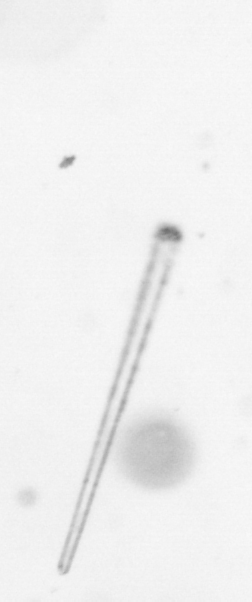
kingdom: Chromista
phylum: Ochrophyta
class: Bacillariophyceae
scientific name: Bacillariophyceae
